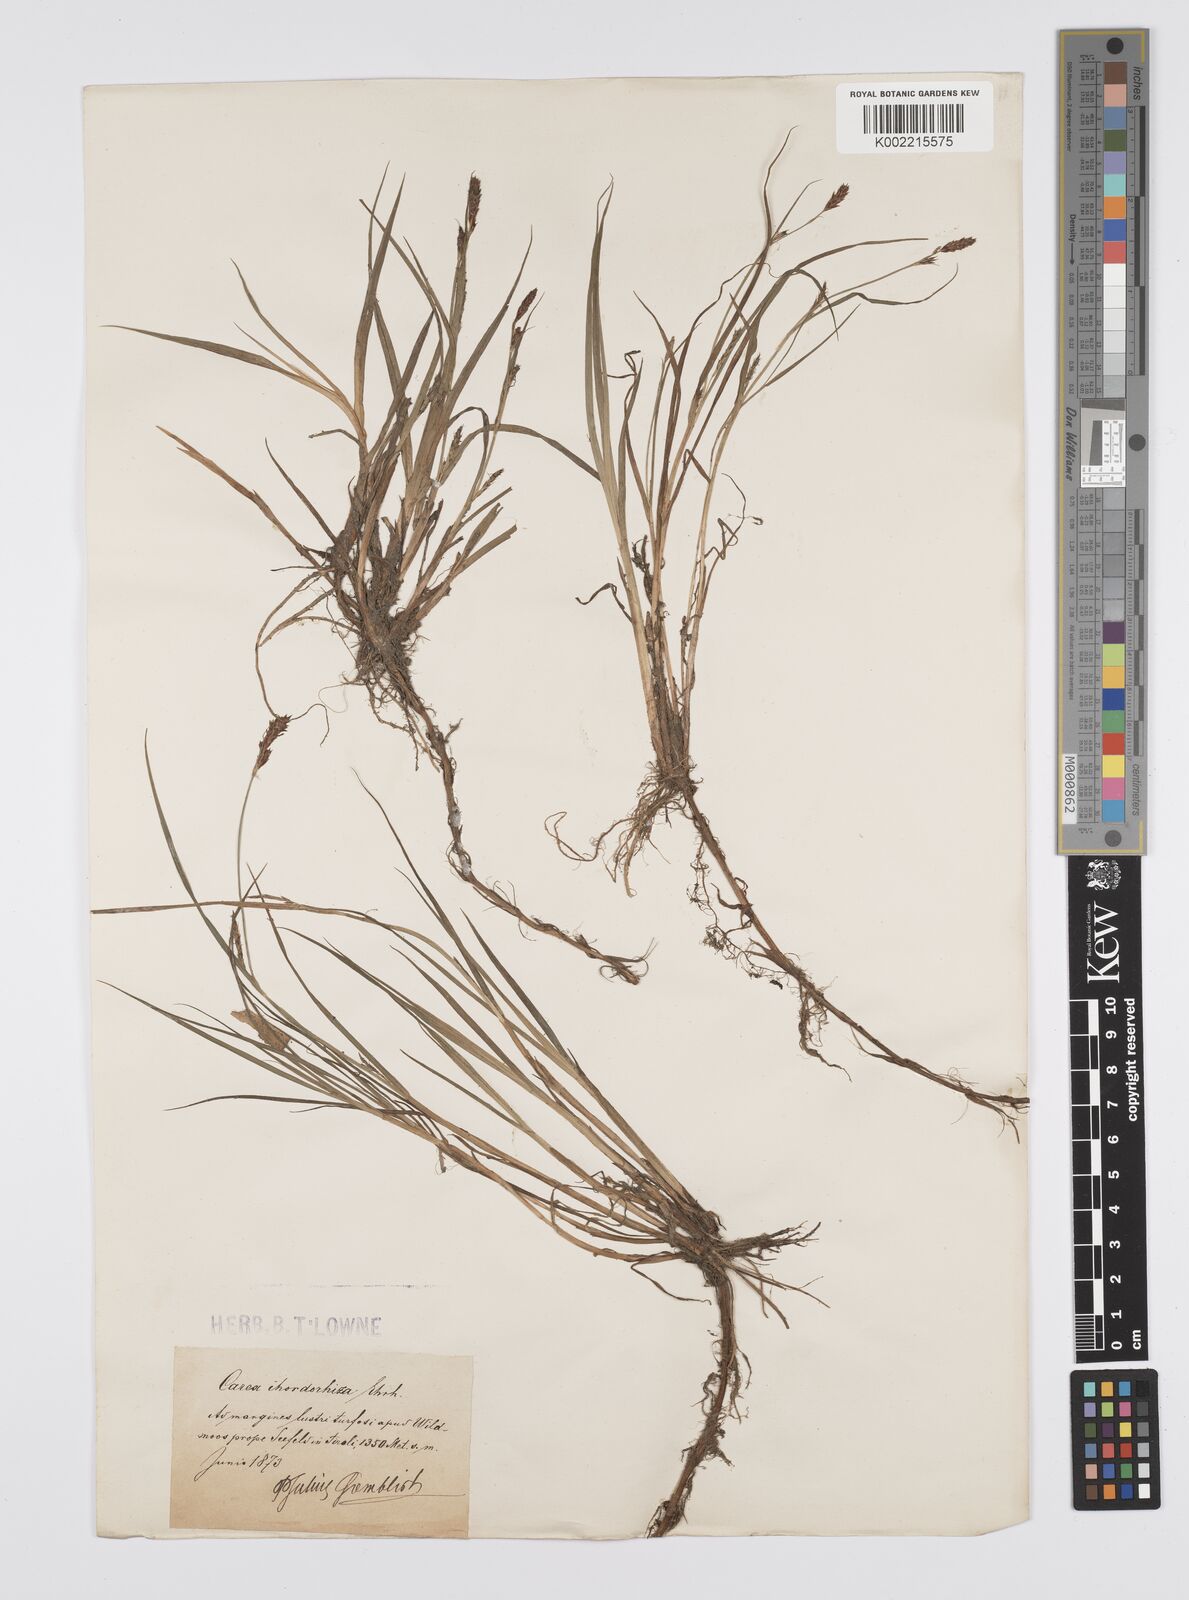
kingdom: Plantae
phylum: Tracheophyta
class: Liliopsida
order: Poales
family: Cyperaceae
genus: Carex
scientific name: Carex hirta
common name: Hairy sedge
